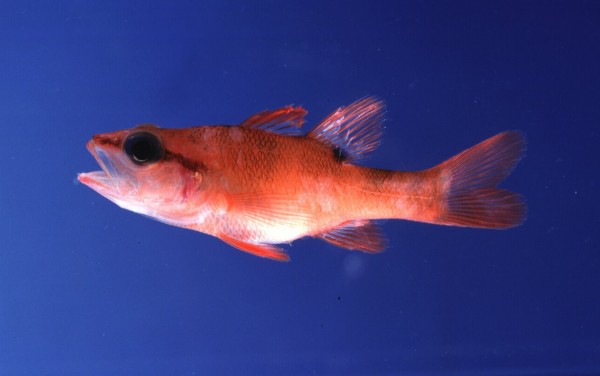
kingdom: Animalia
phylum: Chordata
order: Perciformes
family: Apogonidae
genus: Zapogon
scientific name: Zapogon evermanni
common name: Cave cardinalfish
